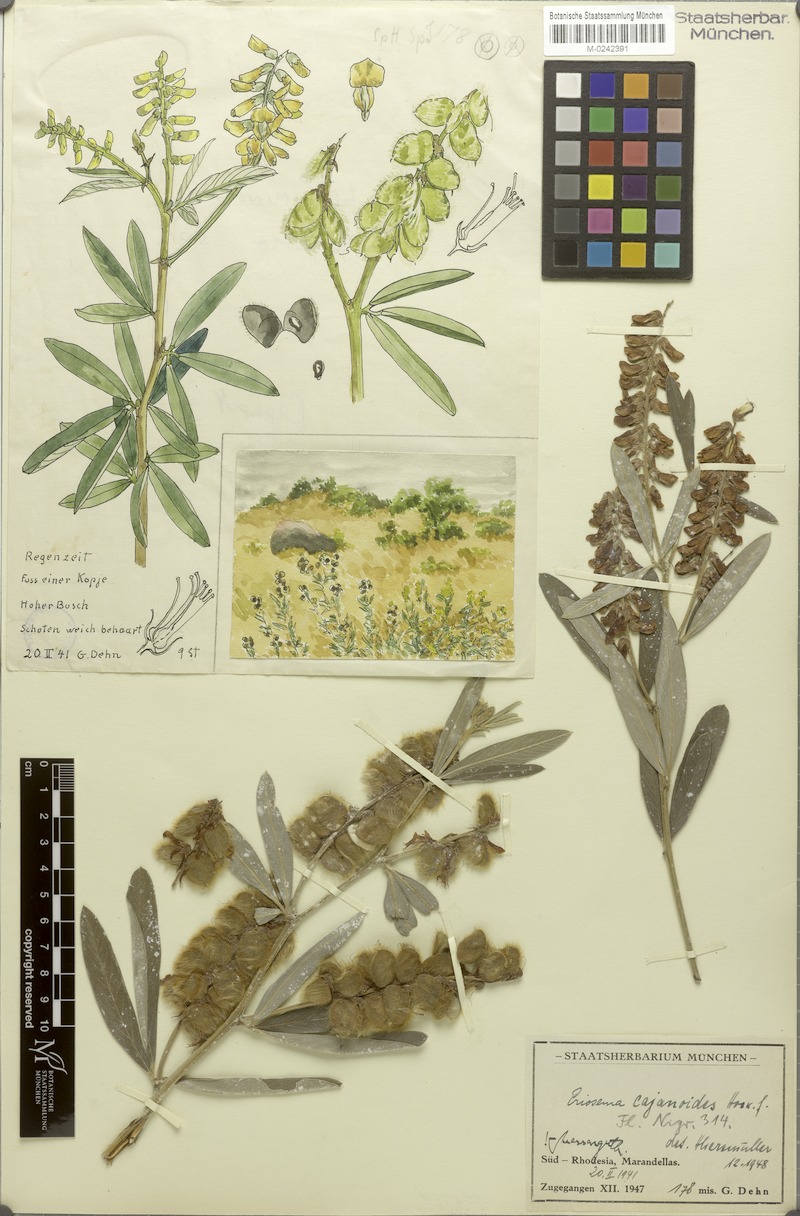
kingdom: Plantae
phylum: Tracheophyta
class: Magnoliopsida
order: Fabales
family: Fabaceae
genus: Eriosema
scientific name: Eriosema psoraleoides
